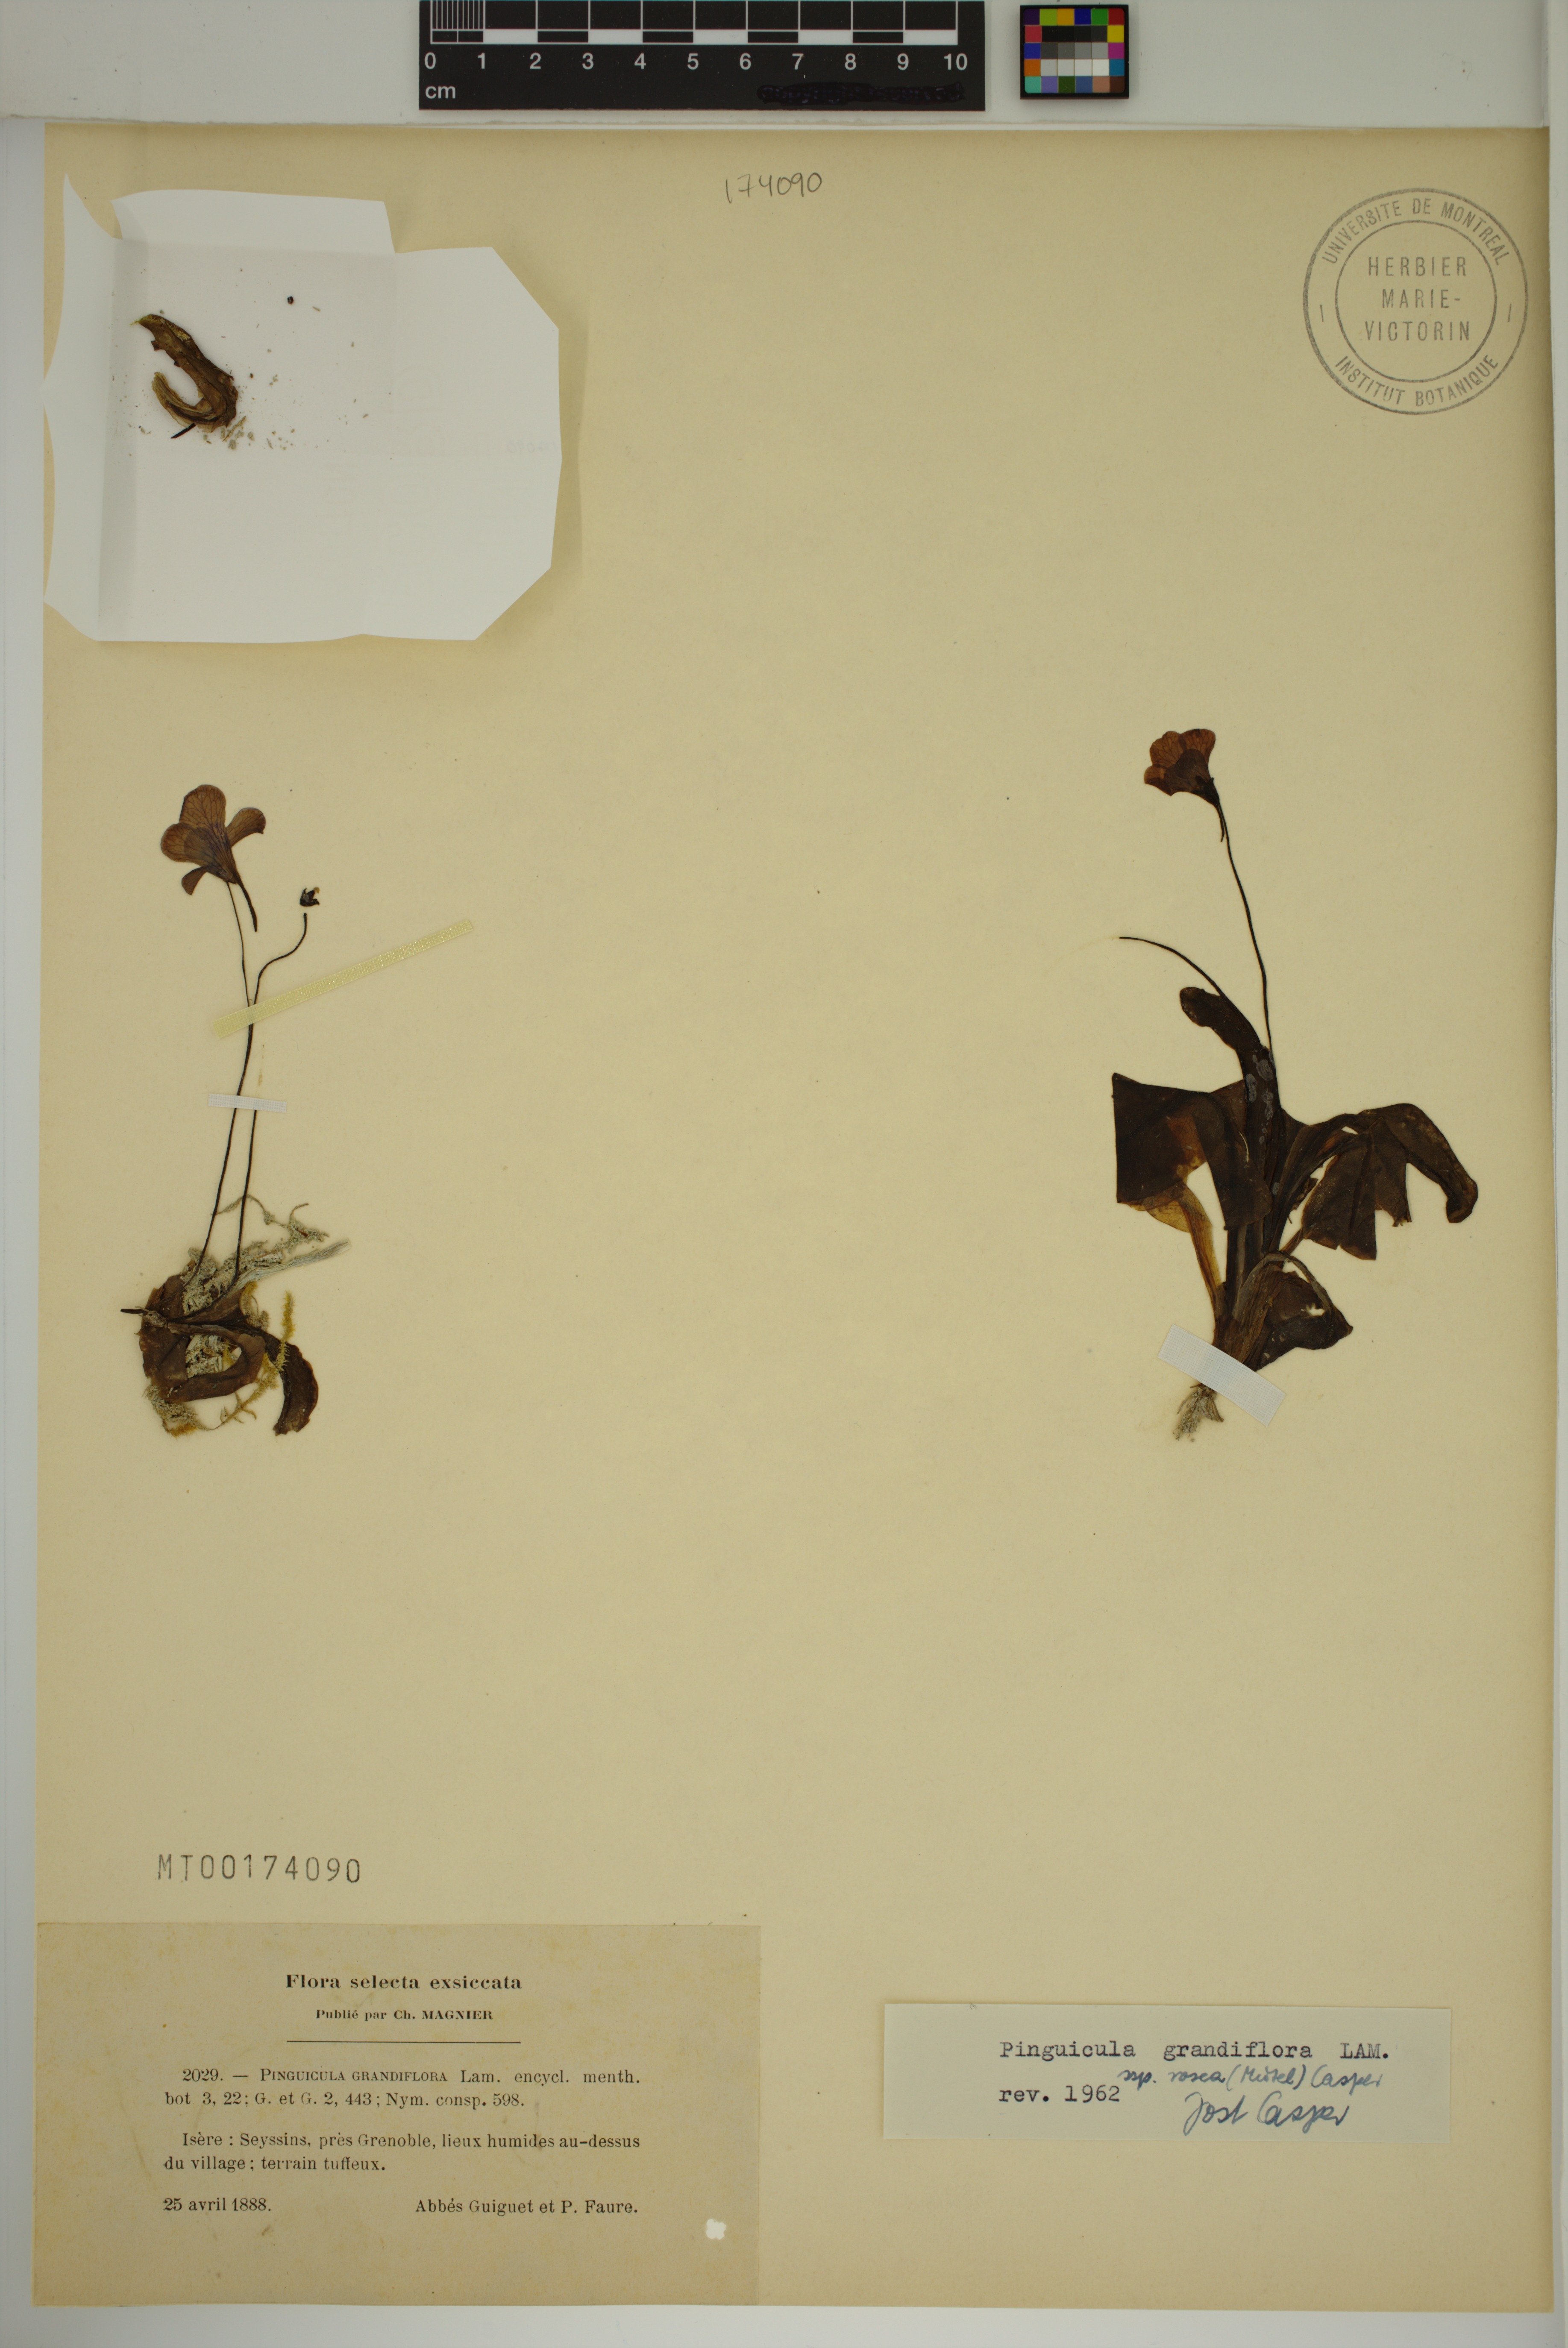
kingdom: Plantae
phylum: Tracheophyta
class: Magnoliopsida
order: Lamiales
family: Lentibulariaceae
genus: Pinguicula
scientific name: Pinguicula grandiflora
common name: Large-flowered butterwort
